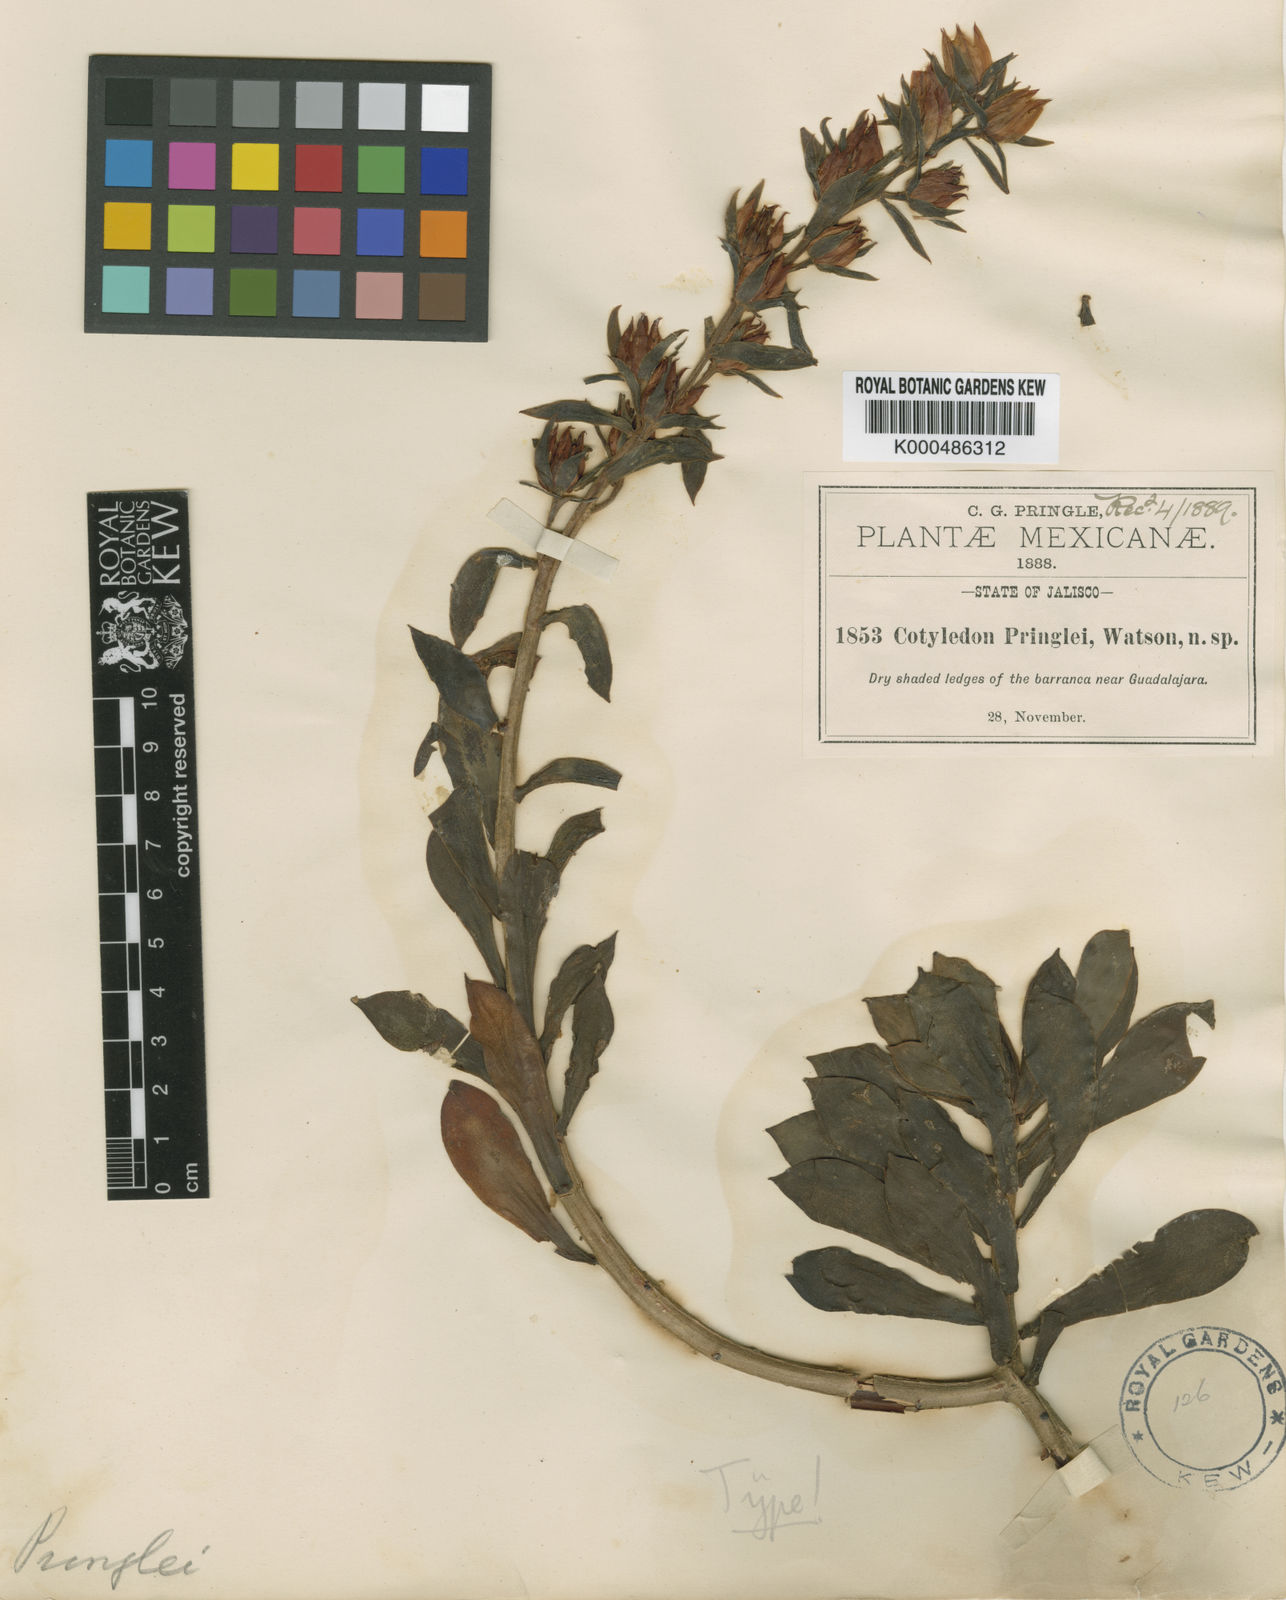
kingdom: Plantae
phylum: Tracheophyta
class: Magnoliopsida
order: Saxifragales
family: Crassulaceae
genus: Echeveria
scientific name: Echeveria pringlei
